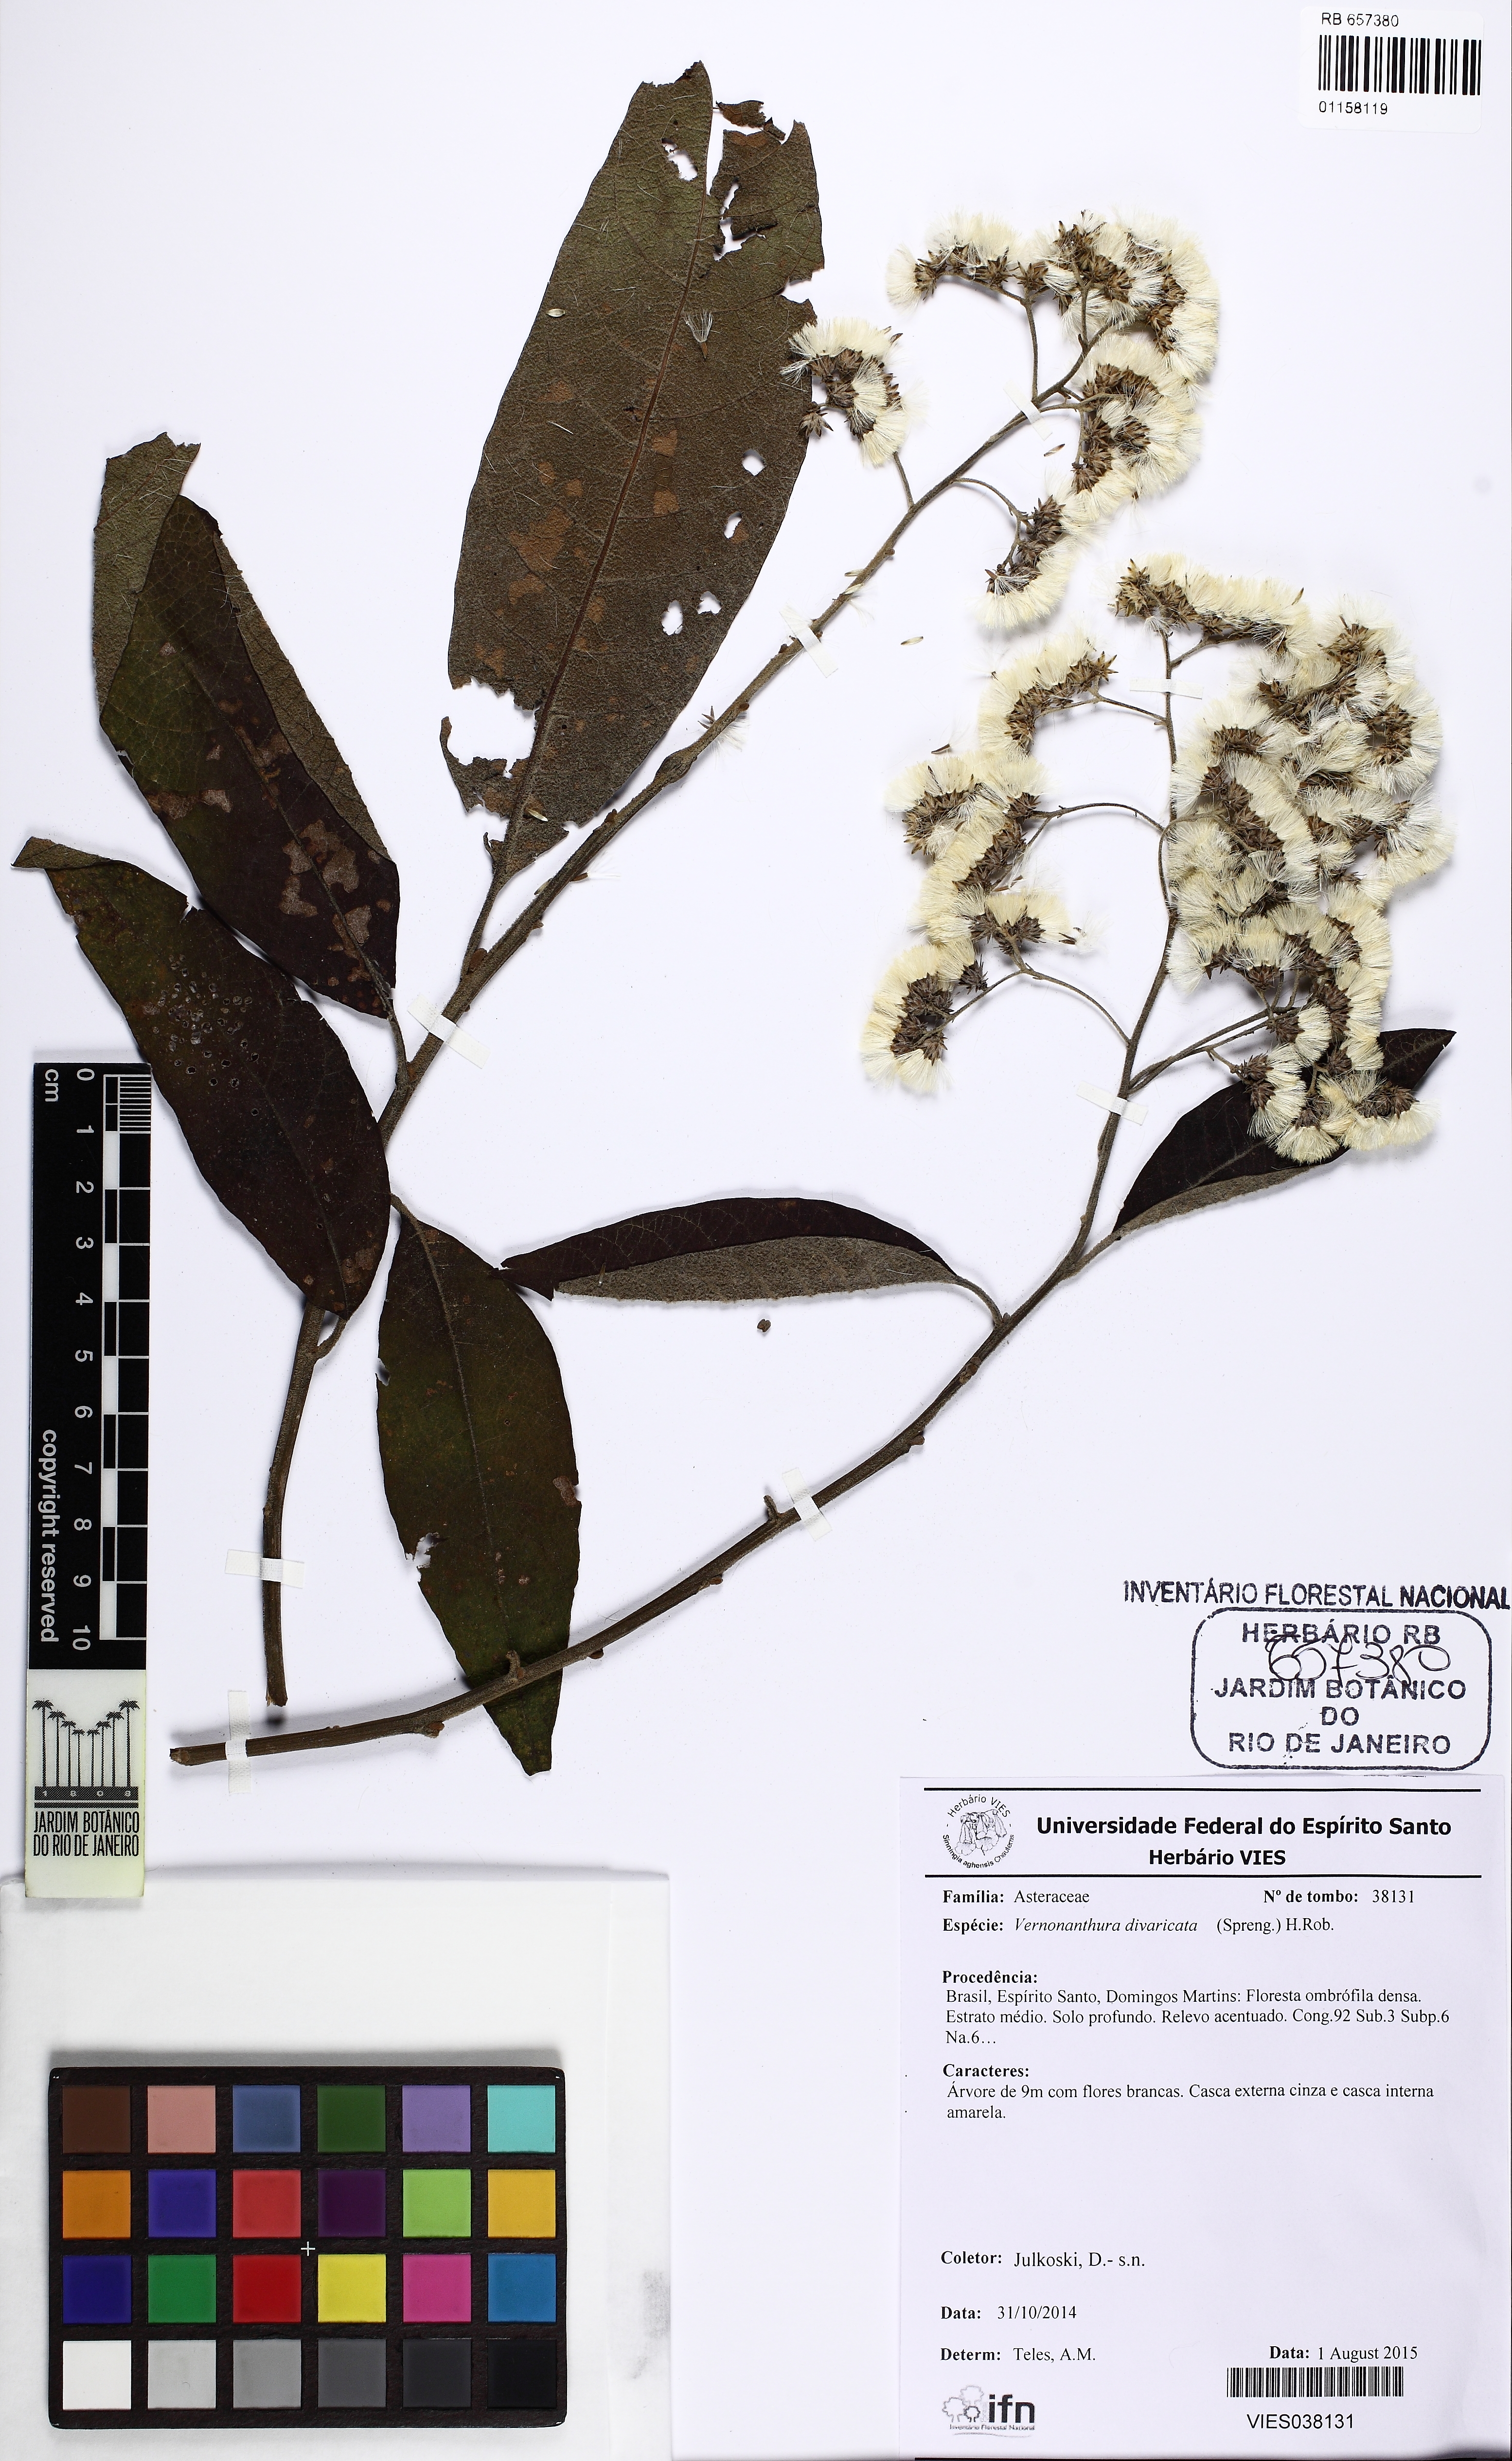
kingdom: Plantae
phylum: Tracheophyta
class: Magnoliopsida
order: Asterales
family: Asteraceae
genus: Vernonanthura
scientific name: Vernonanthura divaricata
